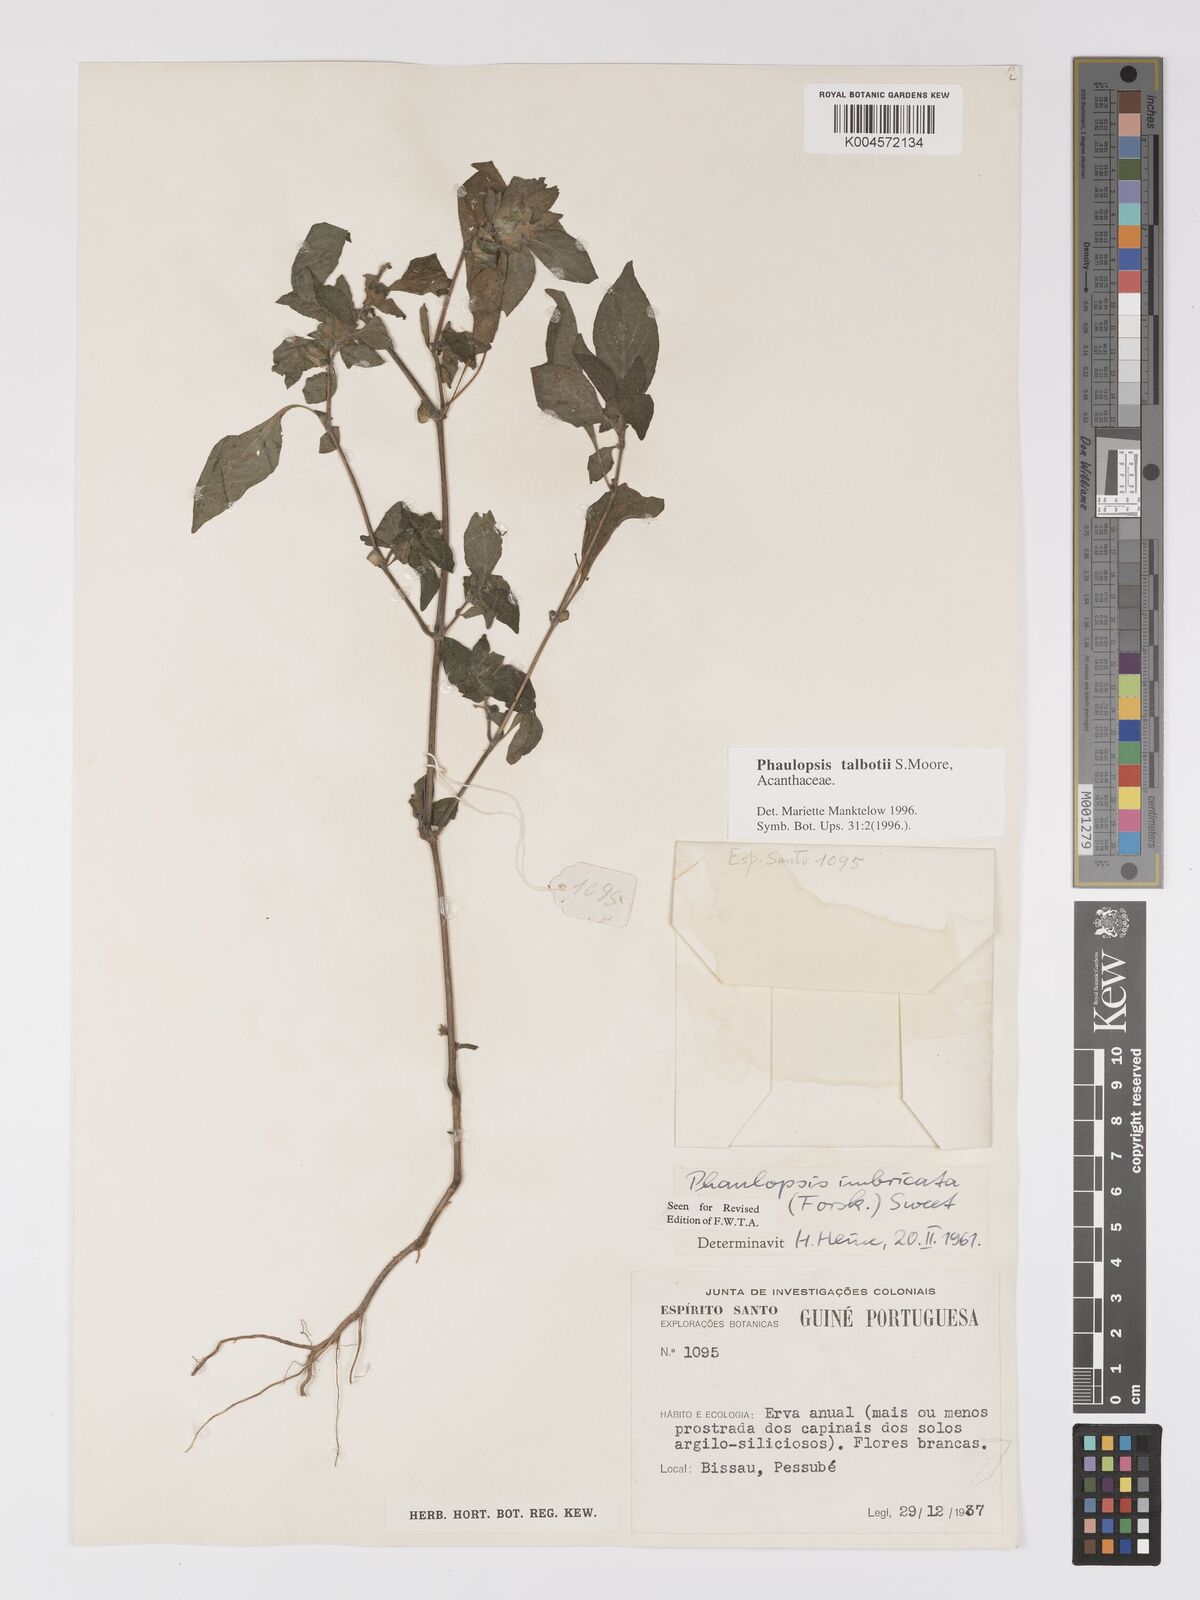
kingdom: Plantae
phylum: Tracheophyta
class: Magnoliopsida
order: Lamiales
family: Acanthaceae
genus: Phaulopsis
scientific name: Phaulopsis talbotii
